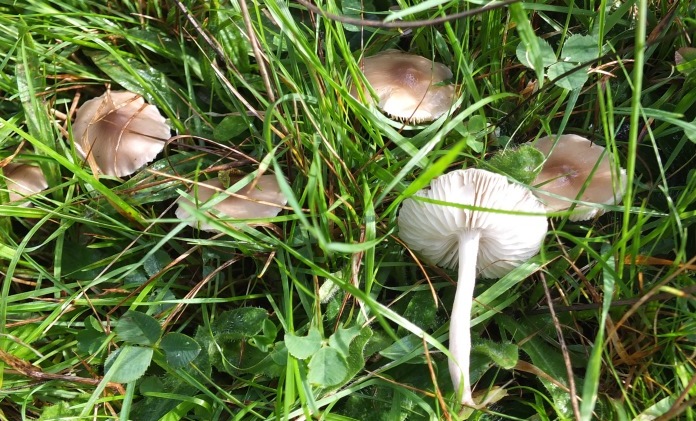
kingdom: Fungi
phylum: Basidiomycota
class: Agaricomycetes
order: Agaricales
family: Tricholomataceae
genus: Dermoloma
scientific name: Dermoloma cuneifolium
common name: eng-nonnehat
